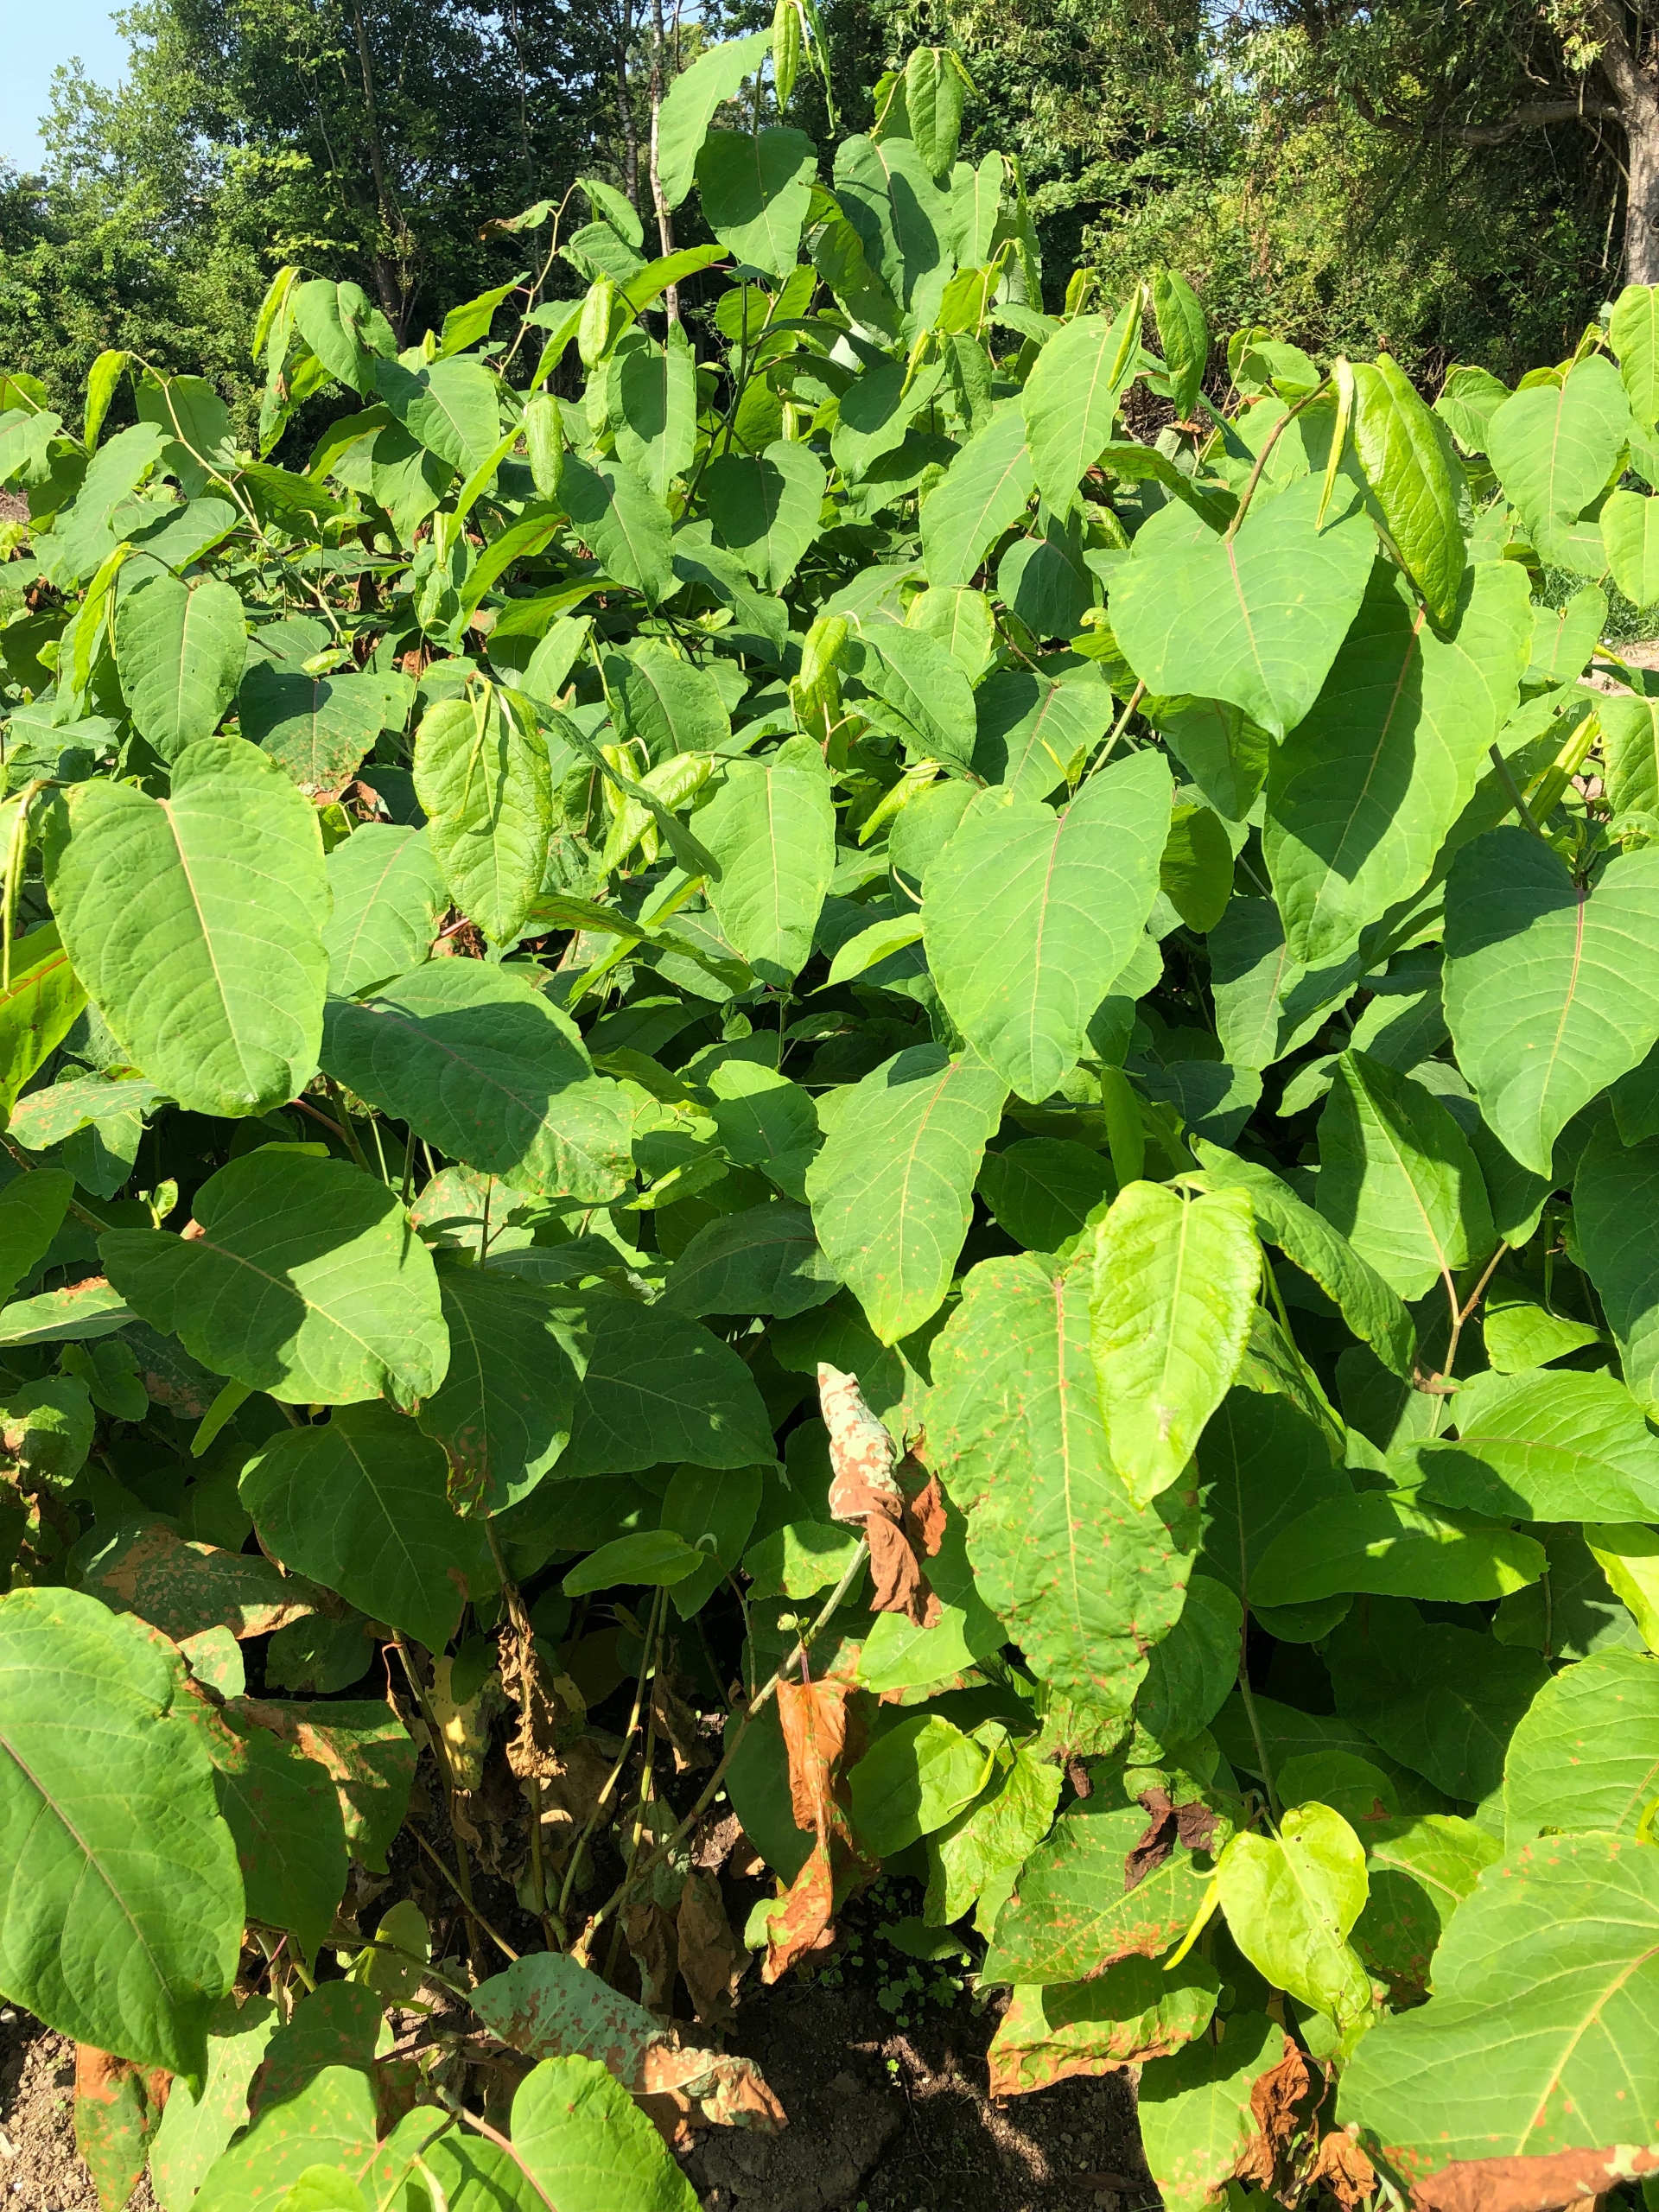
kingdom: Plantae
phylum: Tracheophyta
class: Magnoliopsida
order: Caryophyllales
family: Polygonaceae
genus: Reynoutria
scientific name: Reynoutria sachalinensis
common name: Kæmpe-pileurt
